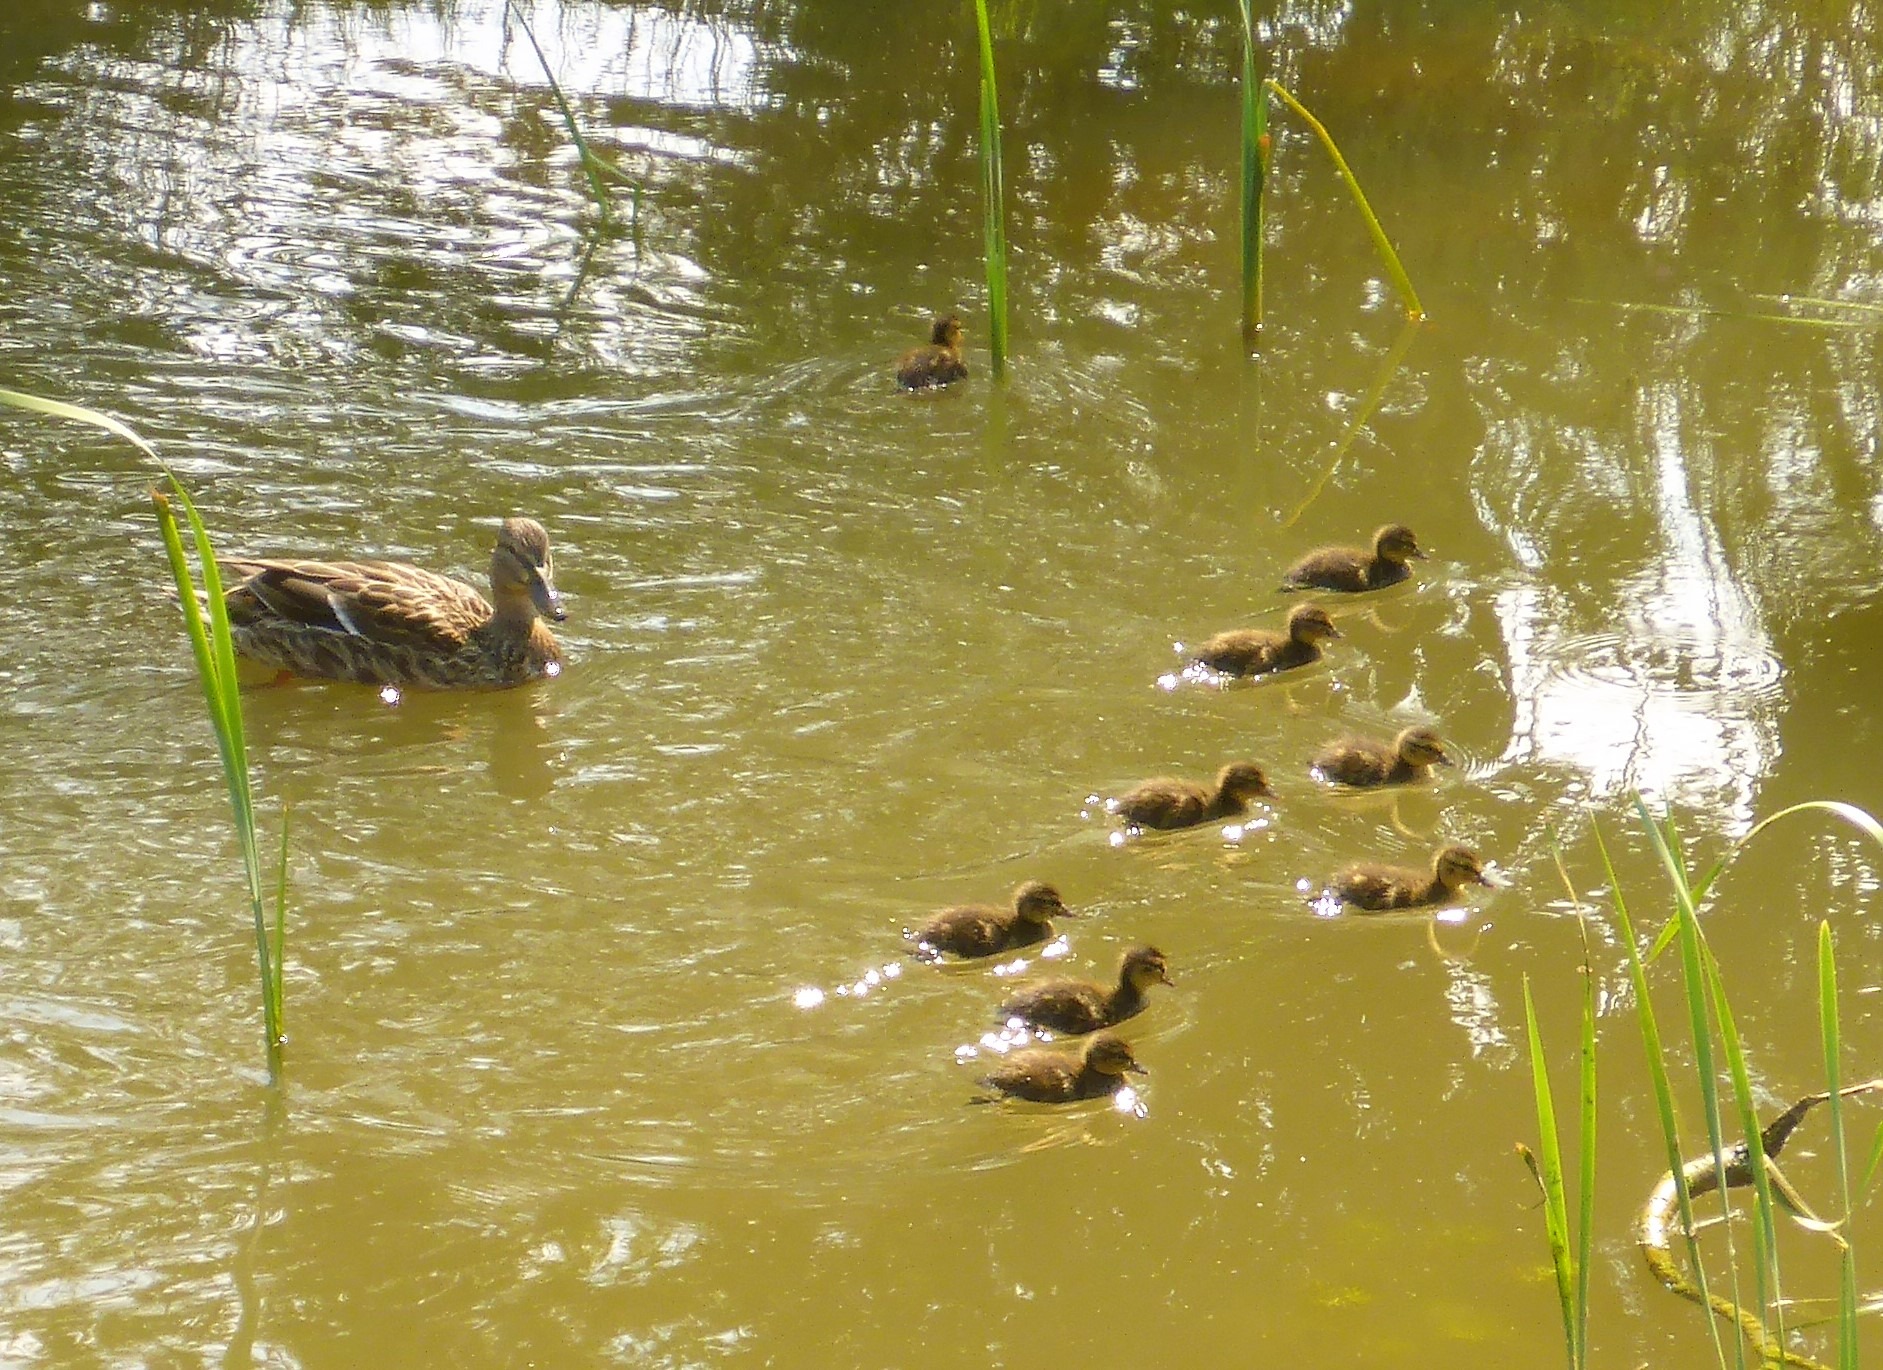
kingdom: Animalia
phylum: Chordata
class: Aves
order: Anseriformes
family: Anatidae
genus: Anas
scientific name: Anas platyrhynchos
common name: Gråand
